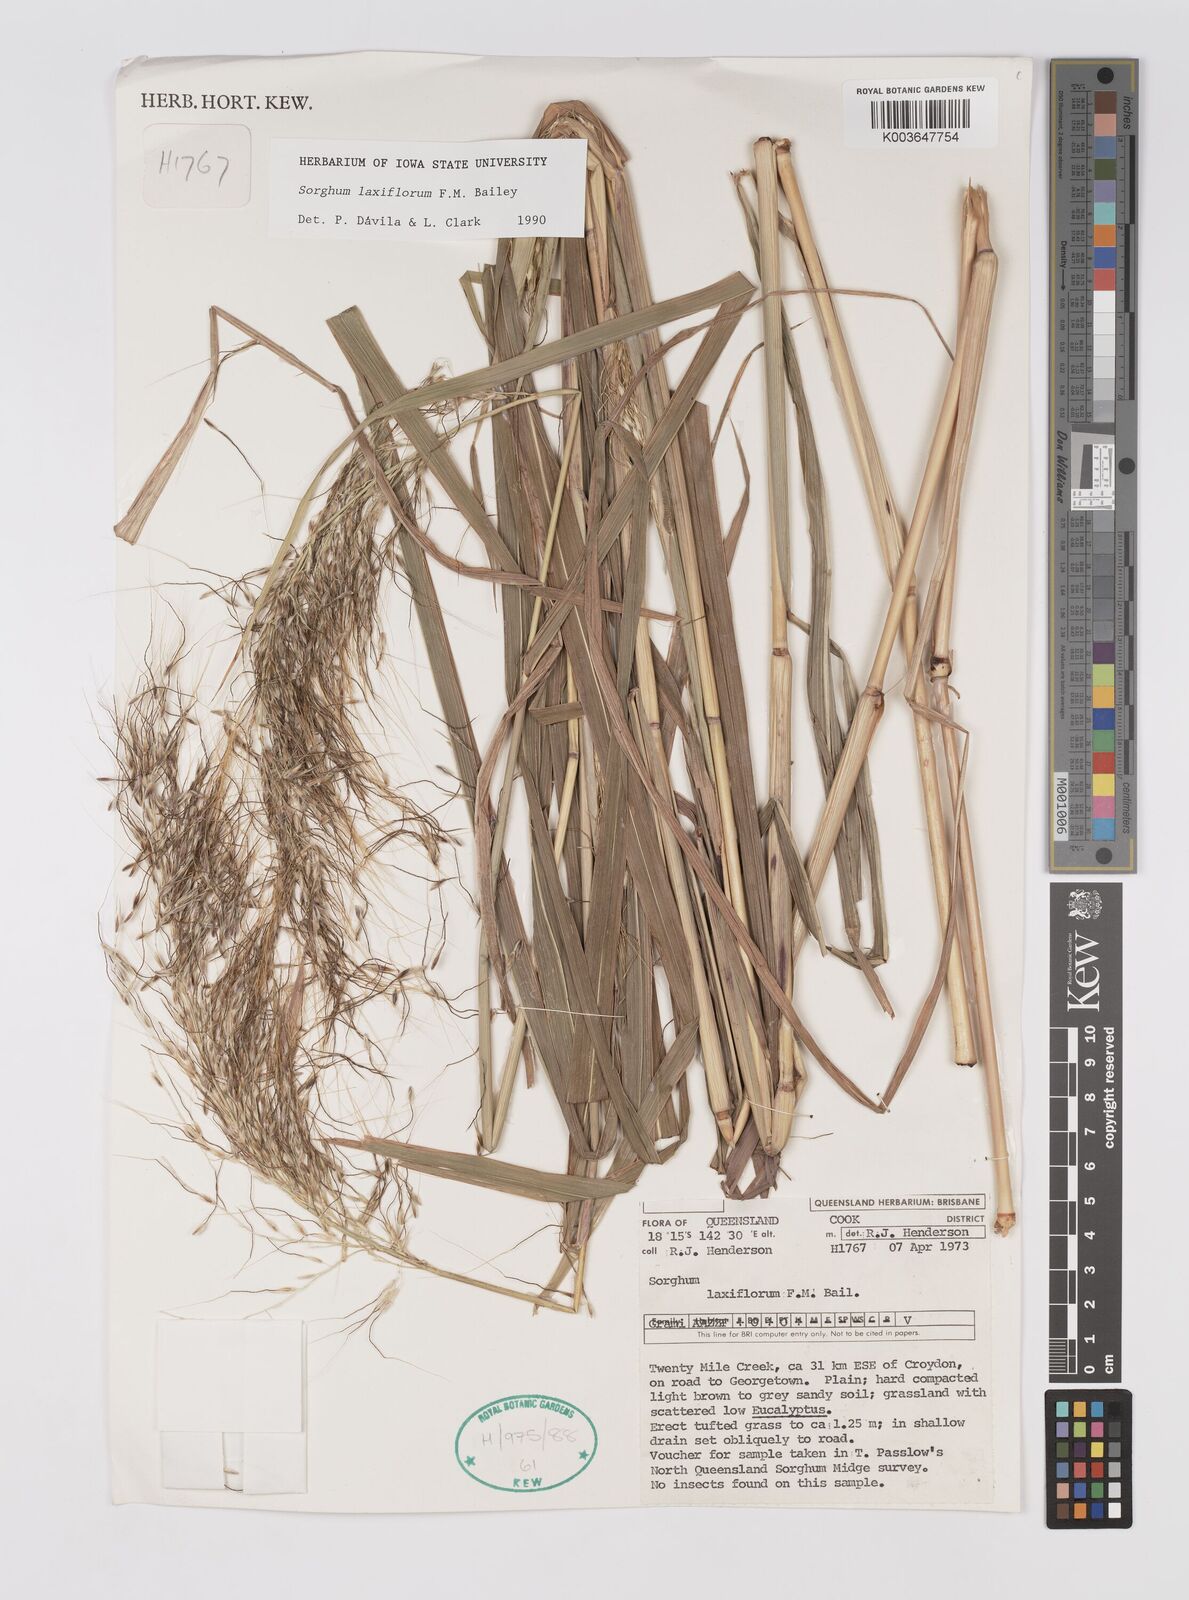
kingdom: Plantae
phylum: Tracheophyta
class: Liliopsida
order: Poales
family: Poaceae
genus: Sorghum
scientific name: Sorghum laxiflorum
